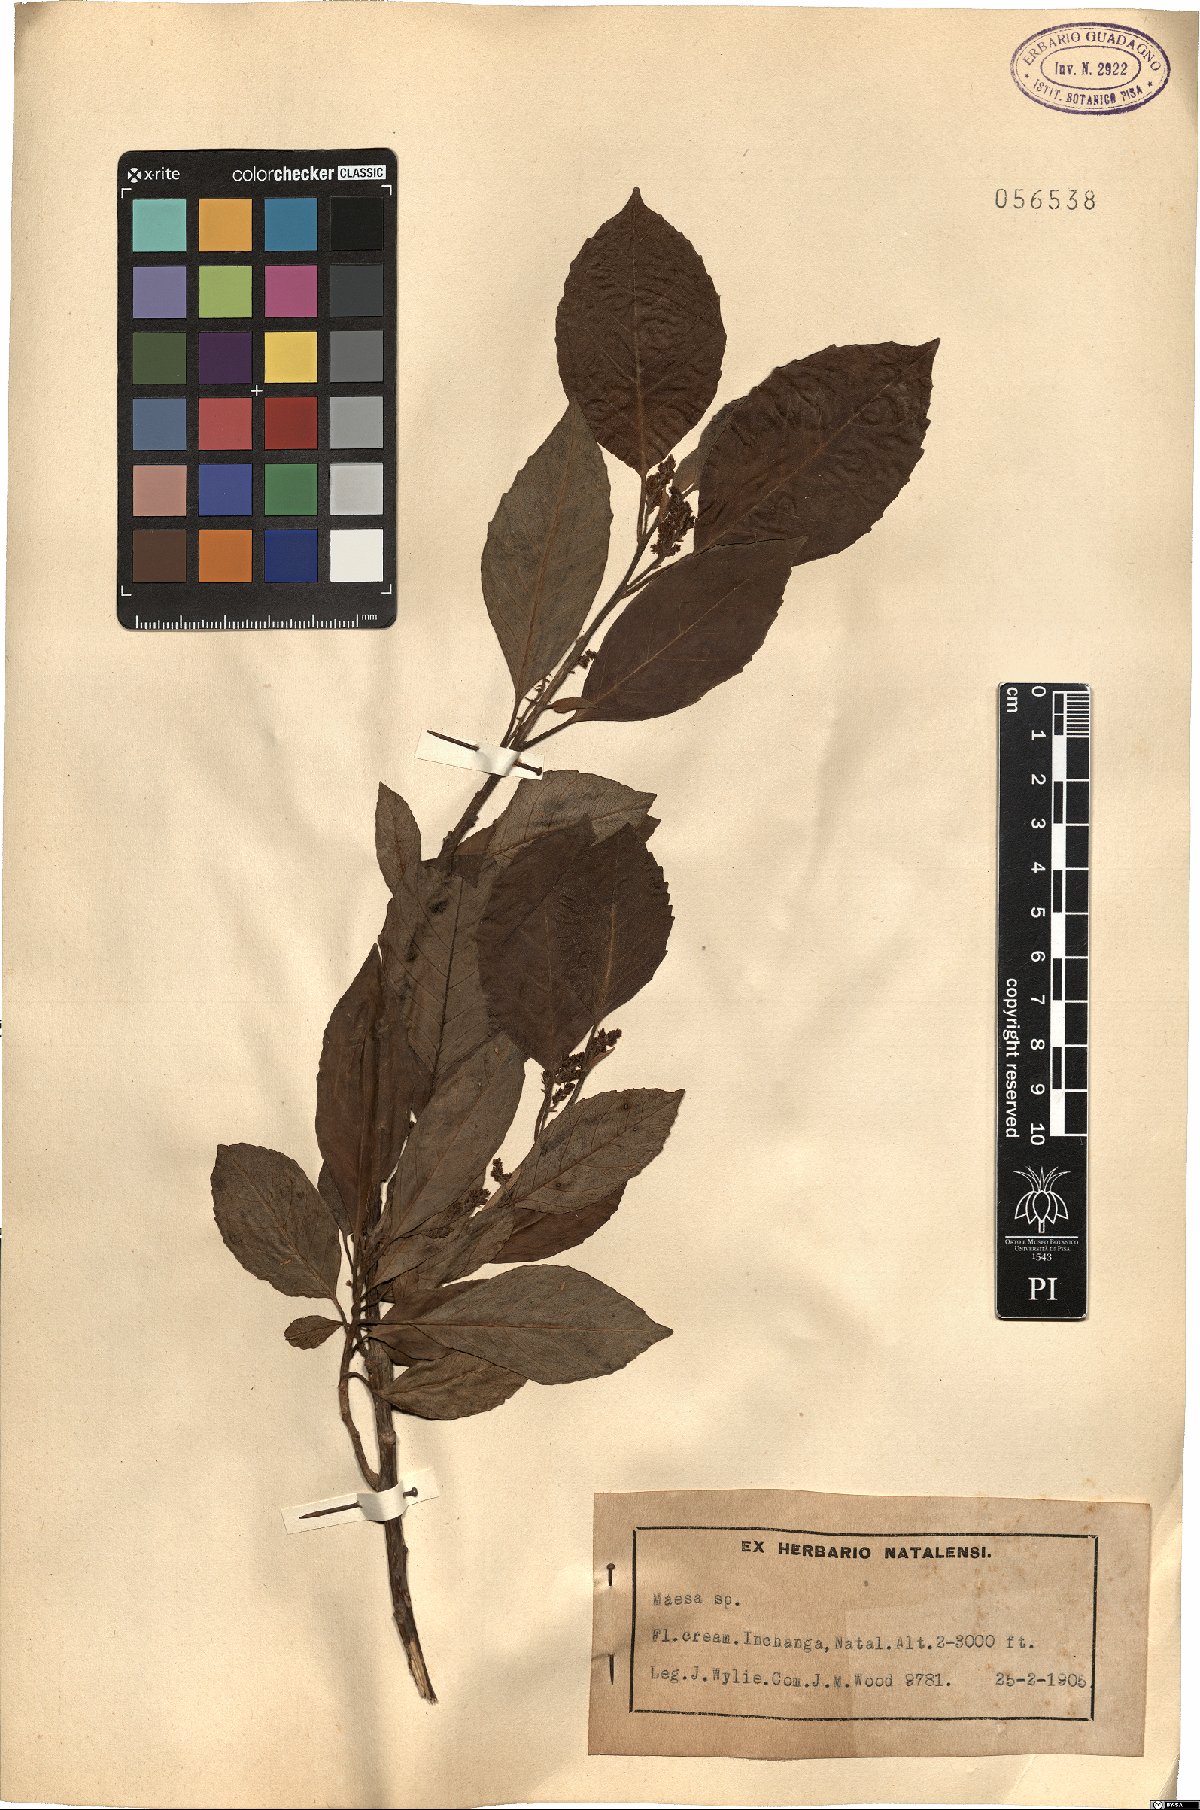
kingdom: Plantae
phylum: Tracheophyta
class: Magnoliopsida
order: Ericales
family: Primulaceae
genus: Maesa
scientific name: Maesa
